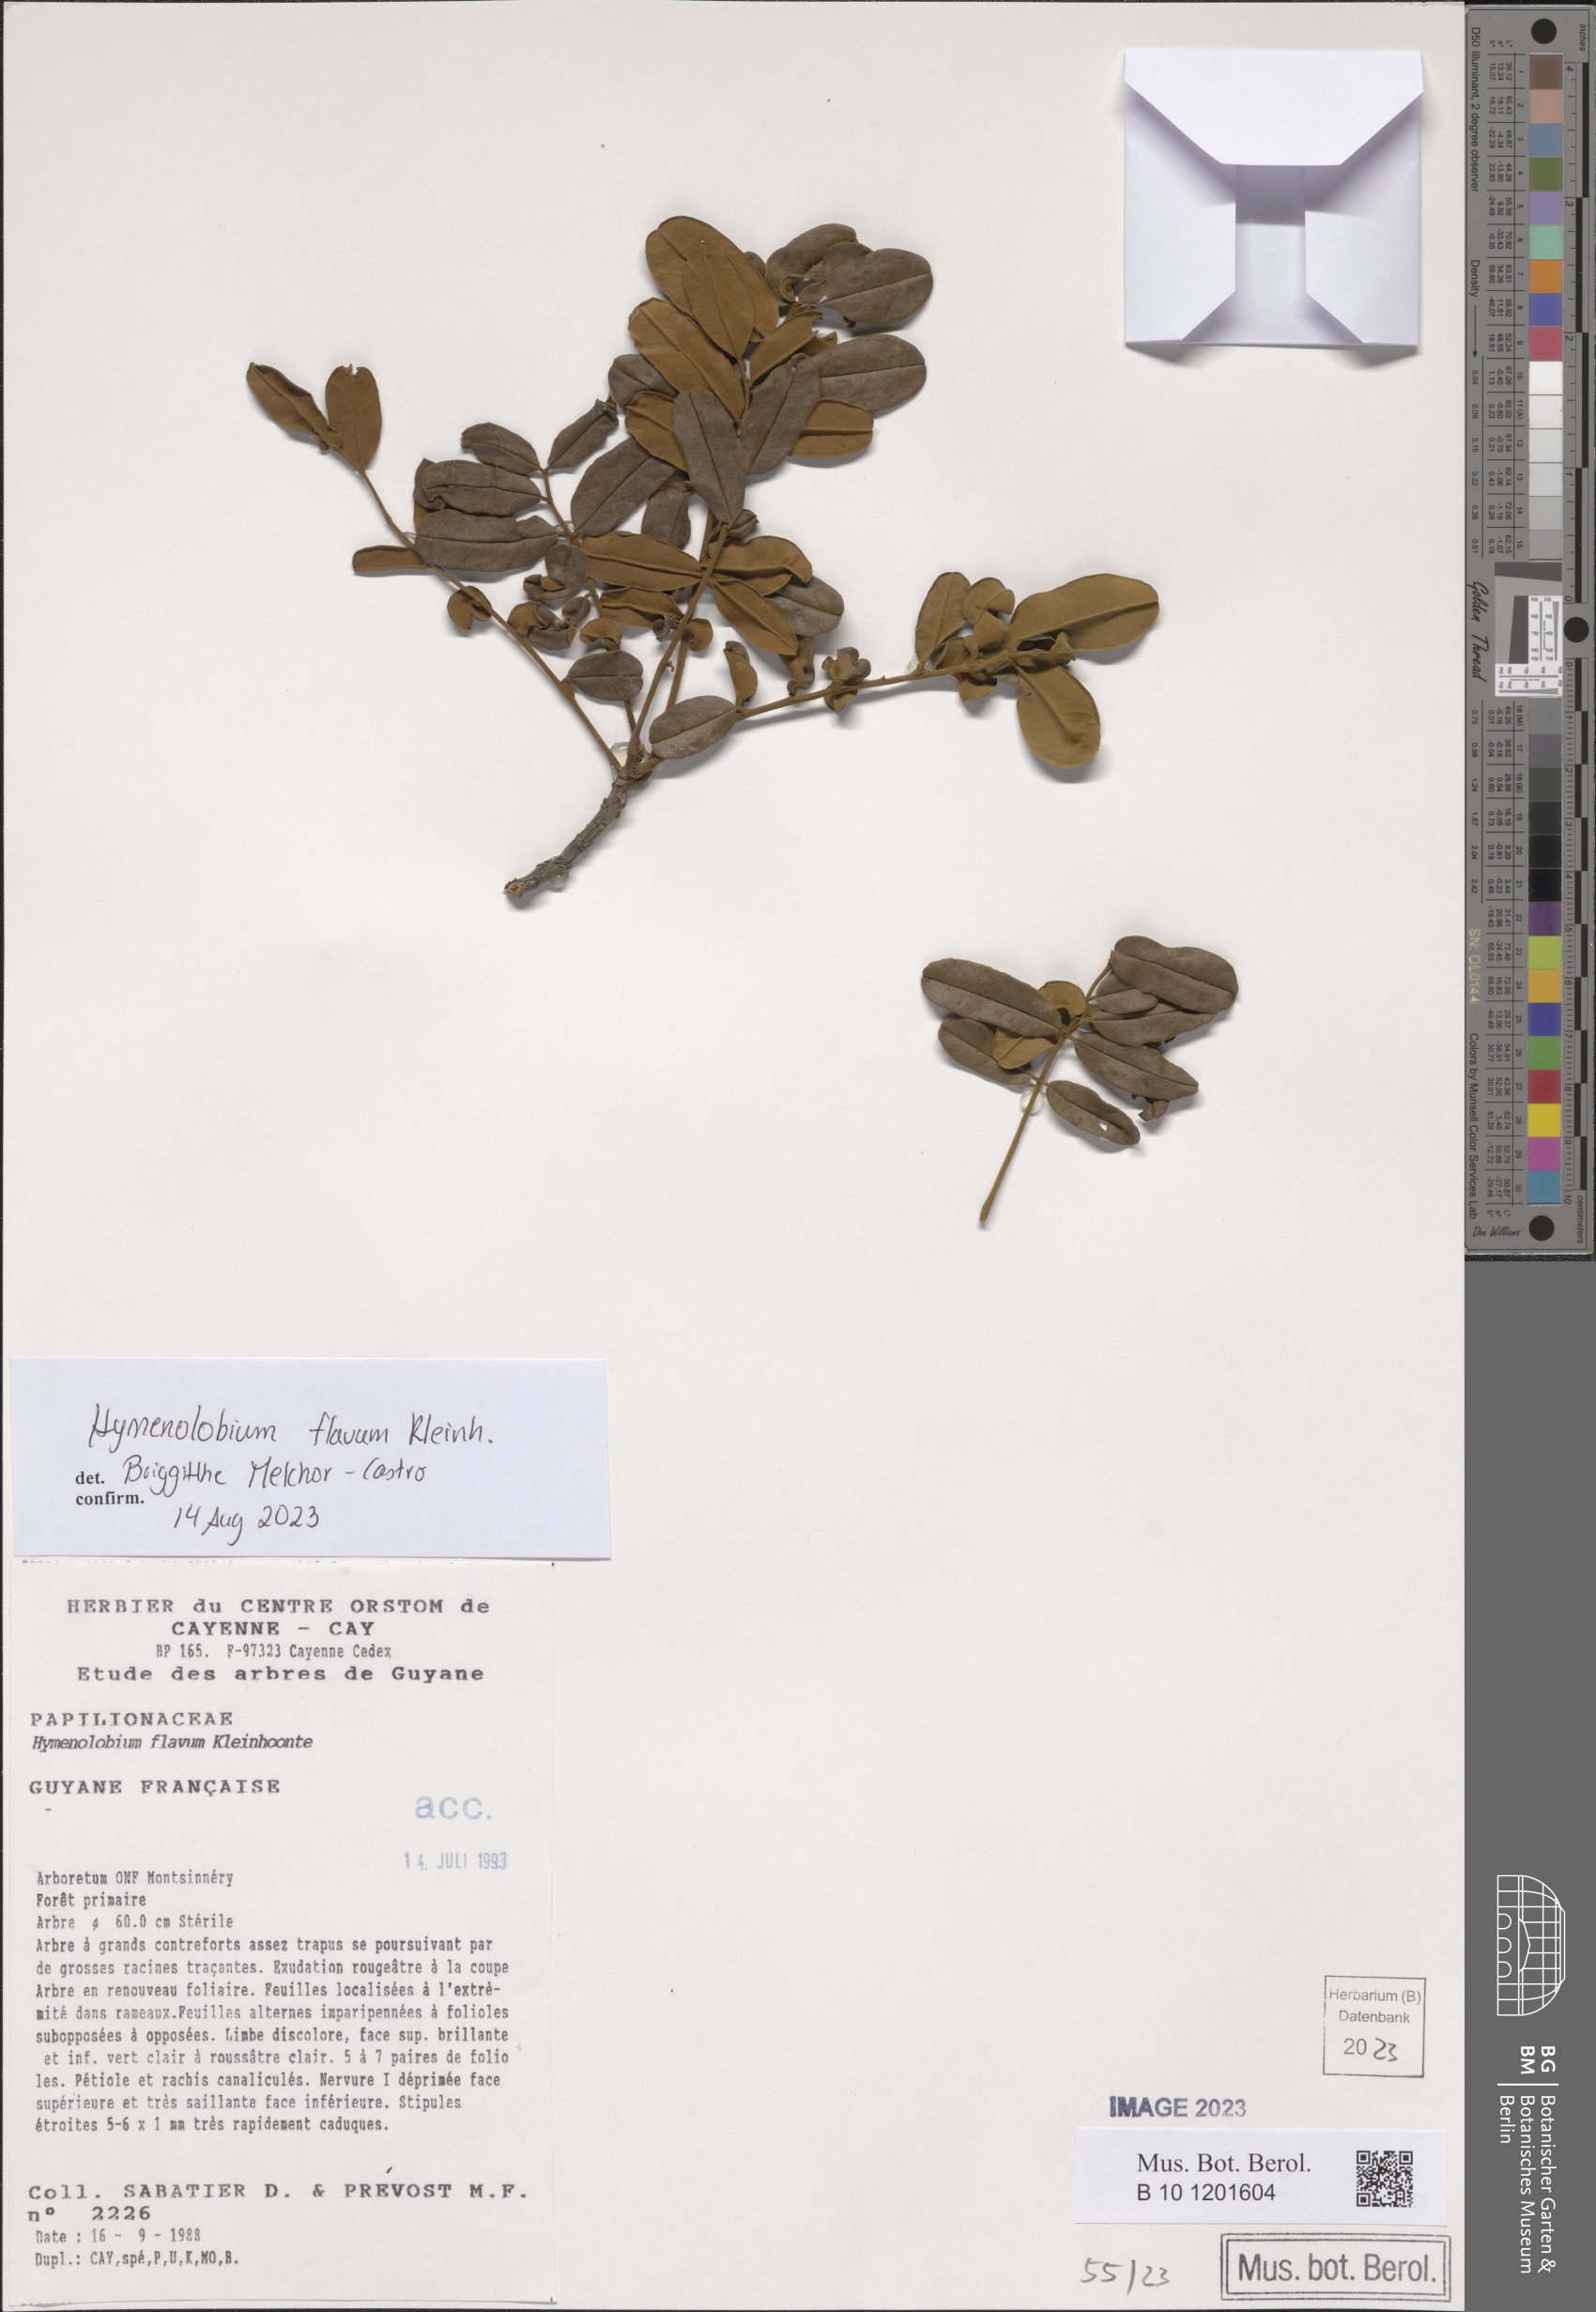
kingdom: Plantae
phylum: Tracheophyta
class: Magnoliopsida
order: Fabales
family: Fabaceae
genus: Hymenolobium
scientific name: Hymenolobium flavum
